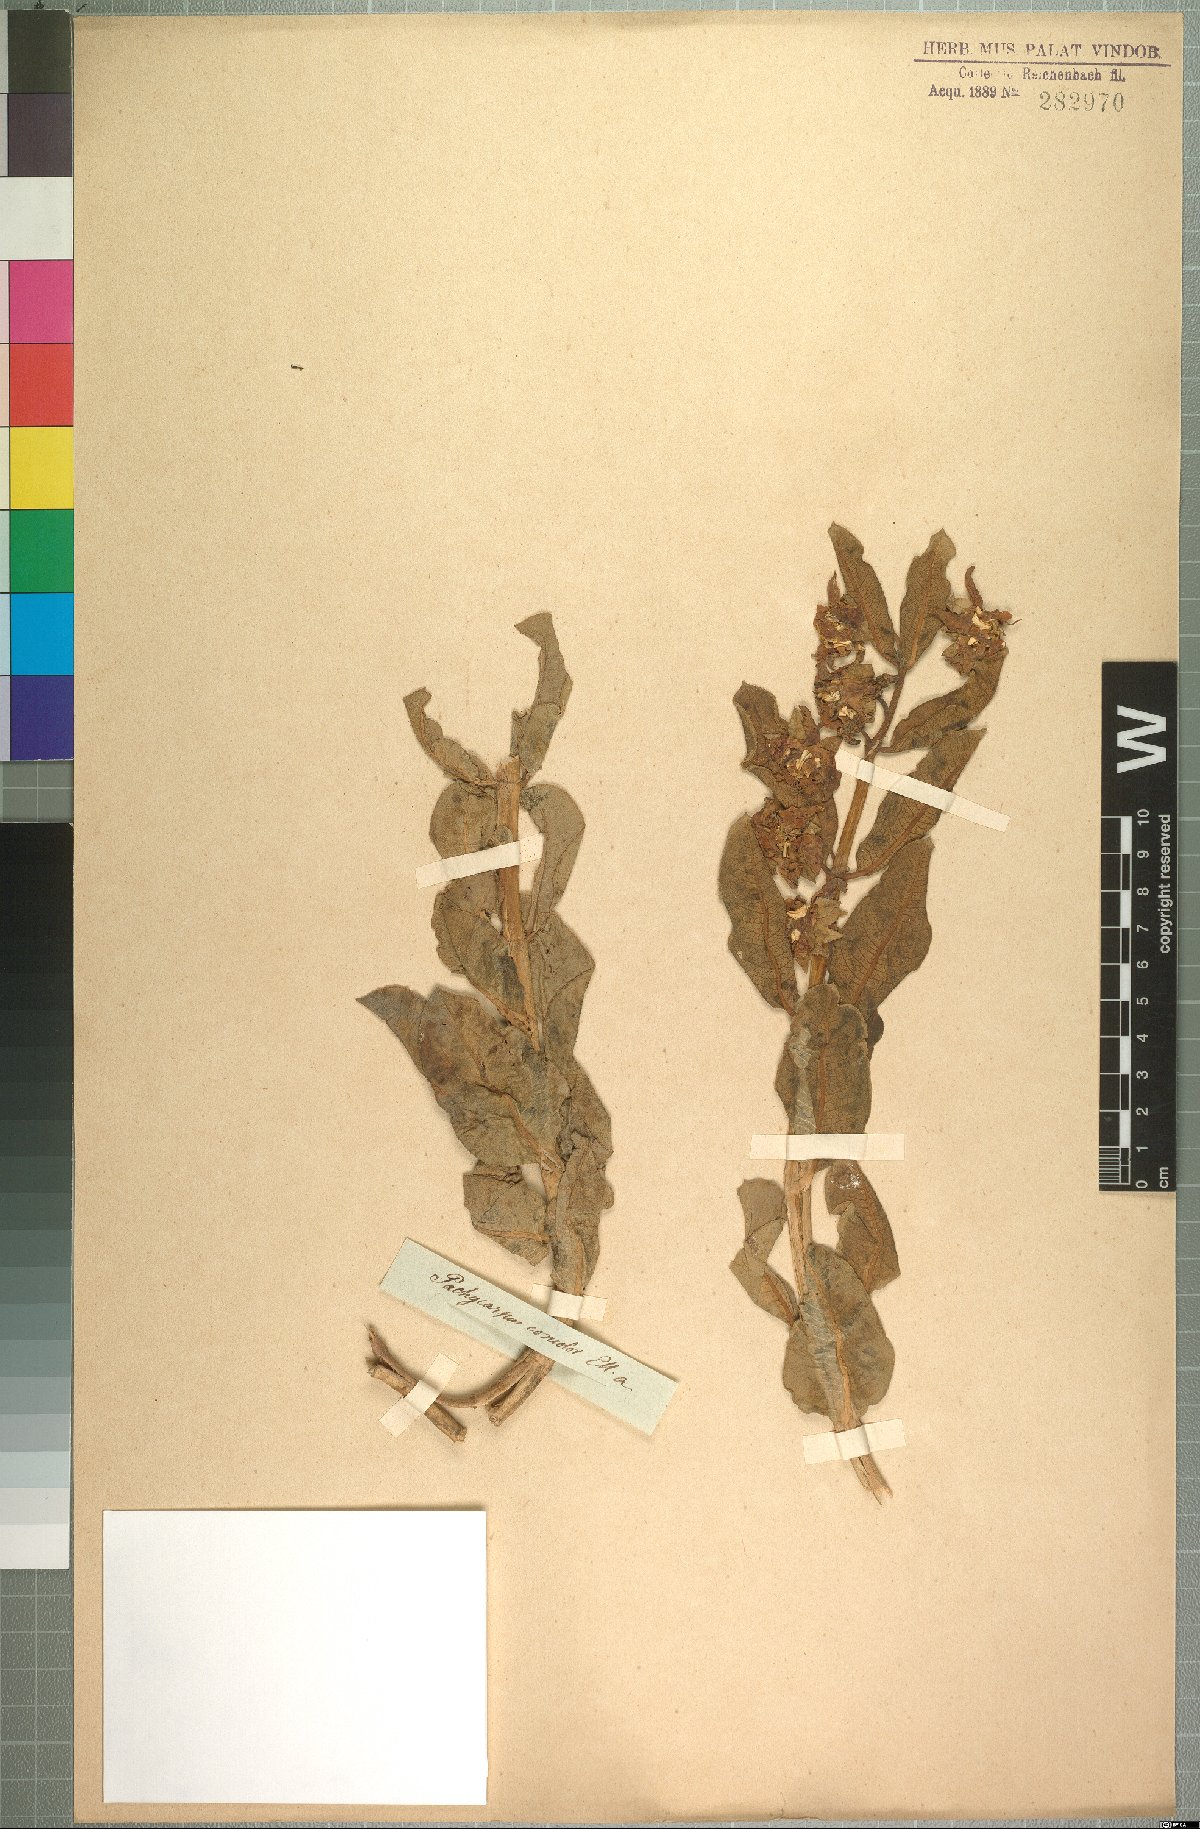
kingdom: Plantae
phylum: Tracheophyta
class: Magnoliopsida
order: Gentianales
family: Apocynaceae
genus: Pachycarpus
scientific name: Pachycarpus concolor
